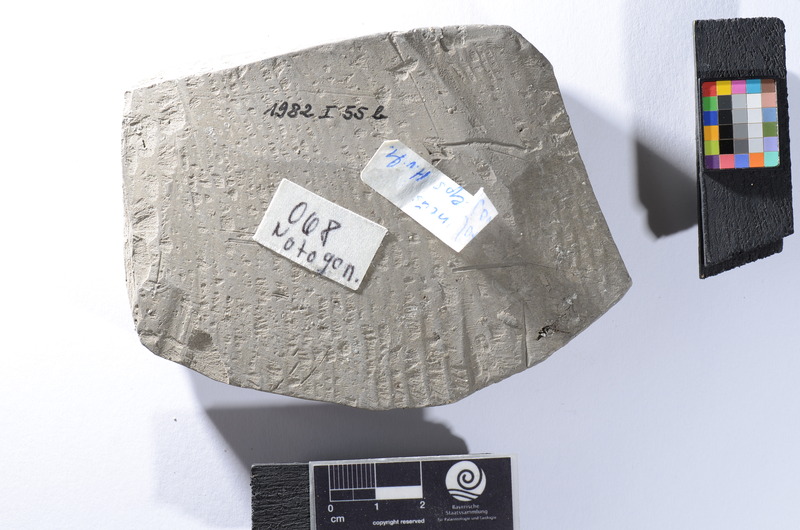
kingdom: Animalia
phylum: Chordata
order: Gonorynchiformes
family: Gonorynchidae
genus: Notogoneus
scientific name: Notogoneus longiceps
